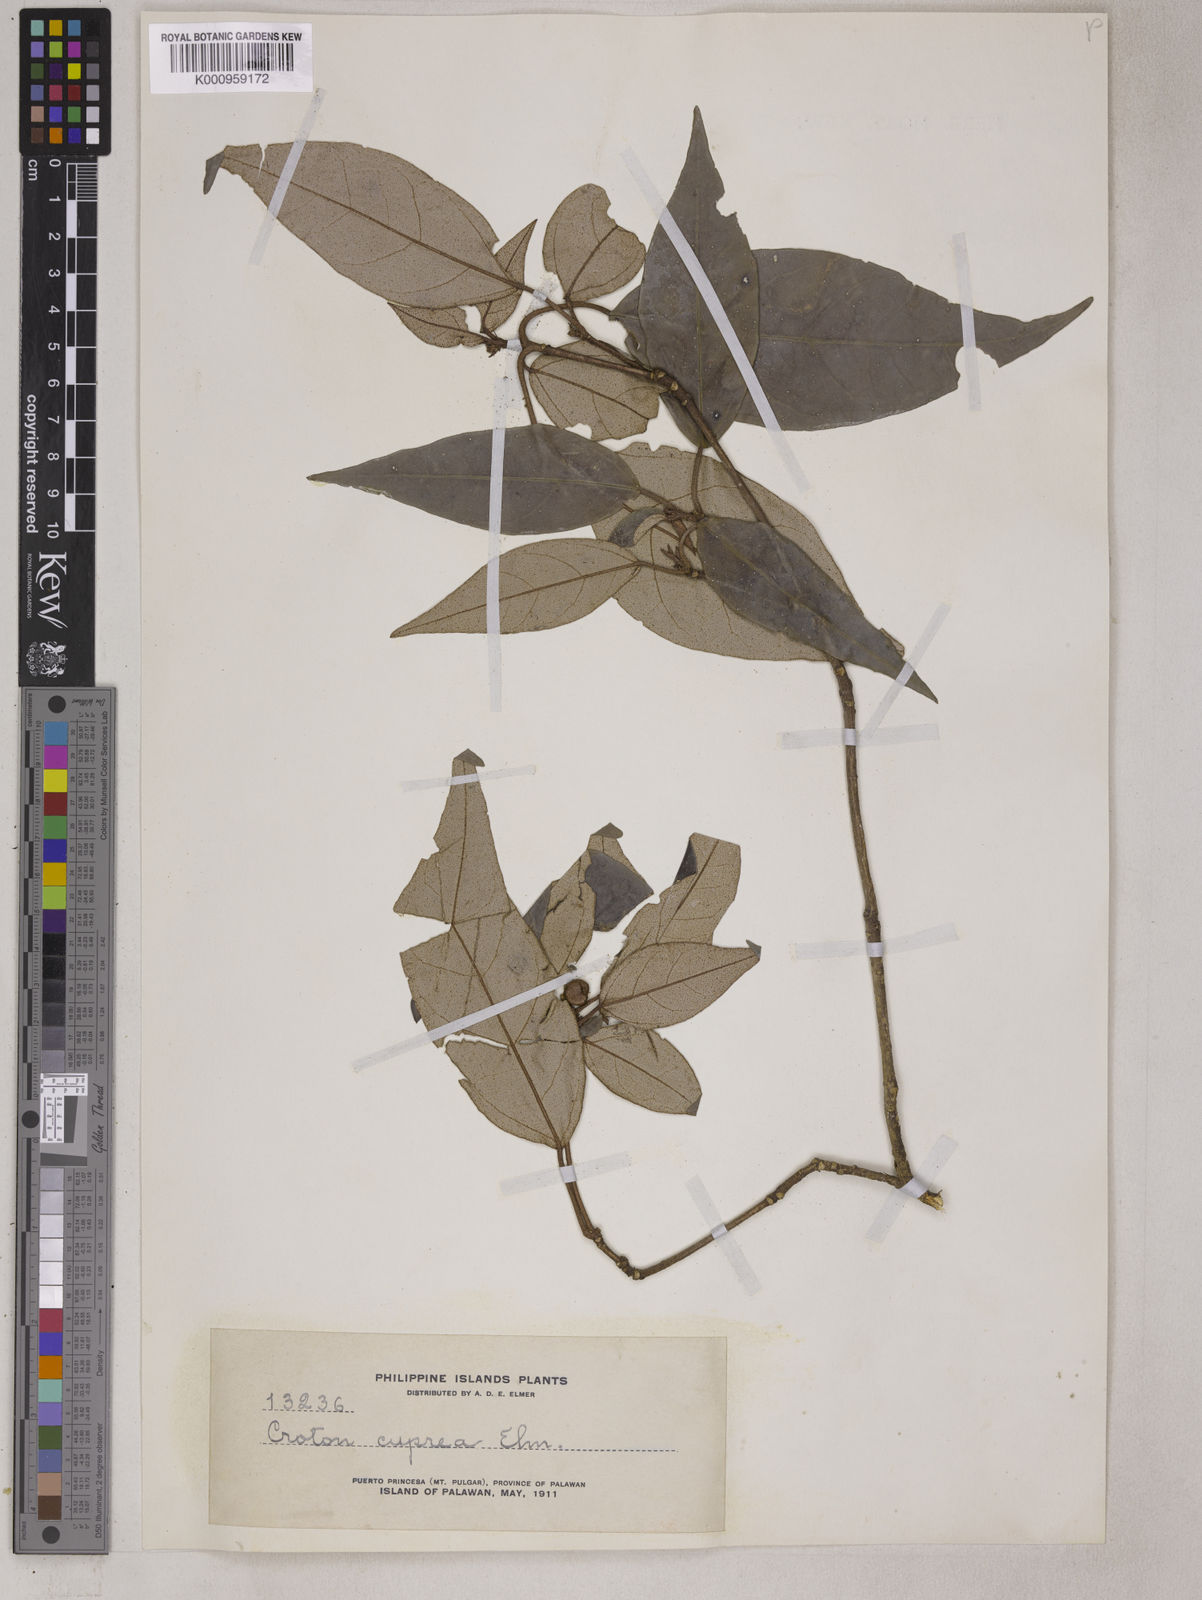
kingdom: Plantae
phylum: Tracheophyta
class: Magnoliopsida
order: Malpighiales
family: Euphorbiaceae
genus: Croton
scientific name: Croton cupreus
